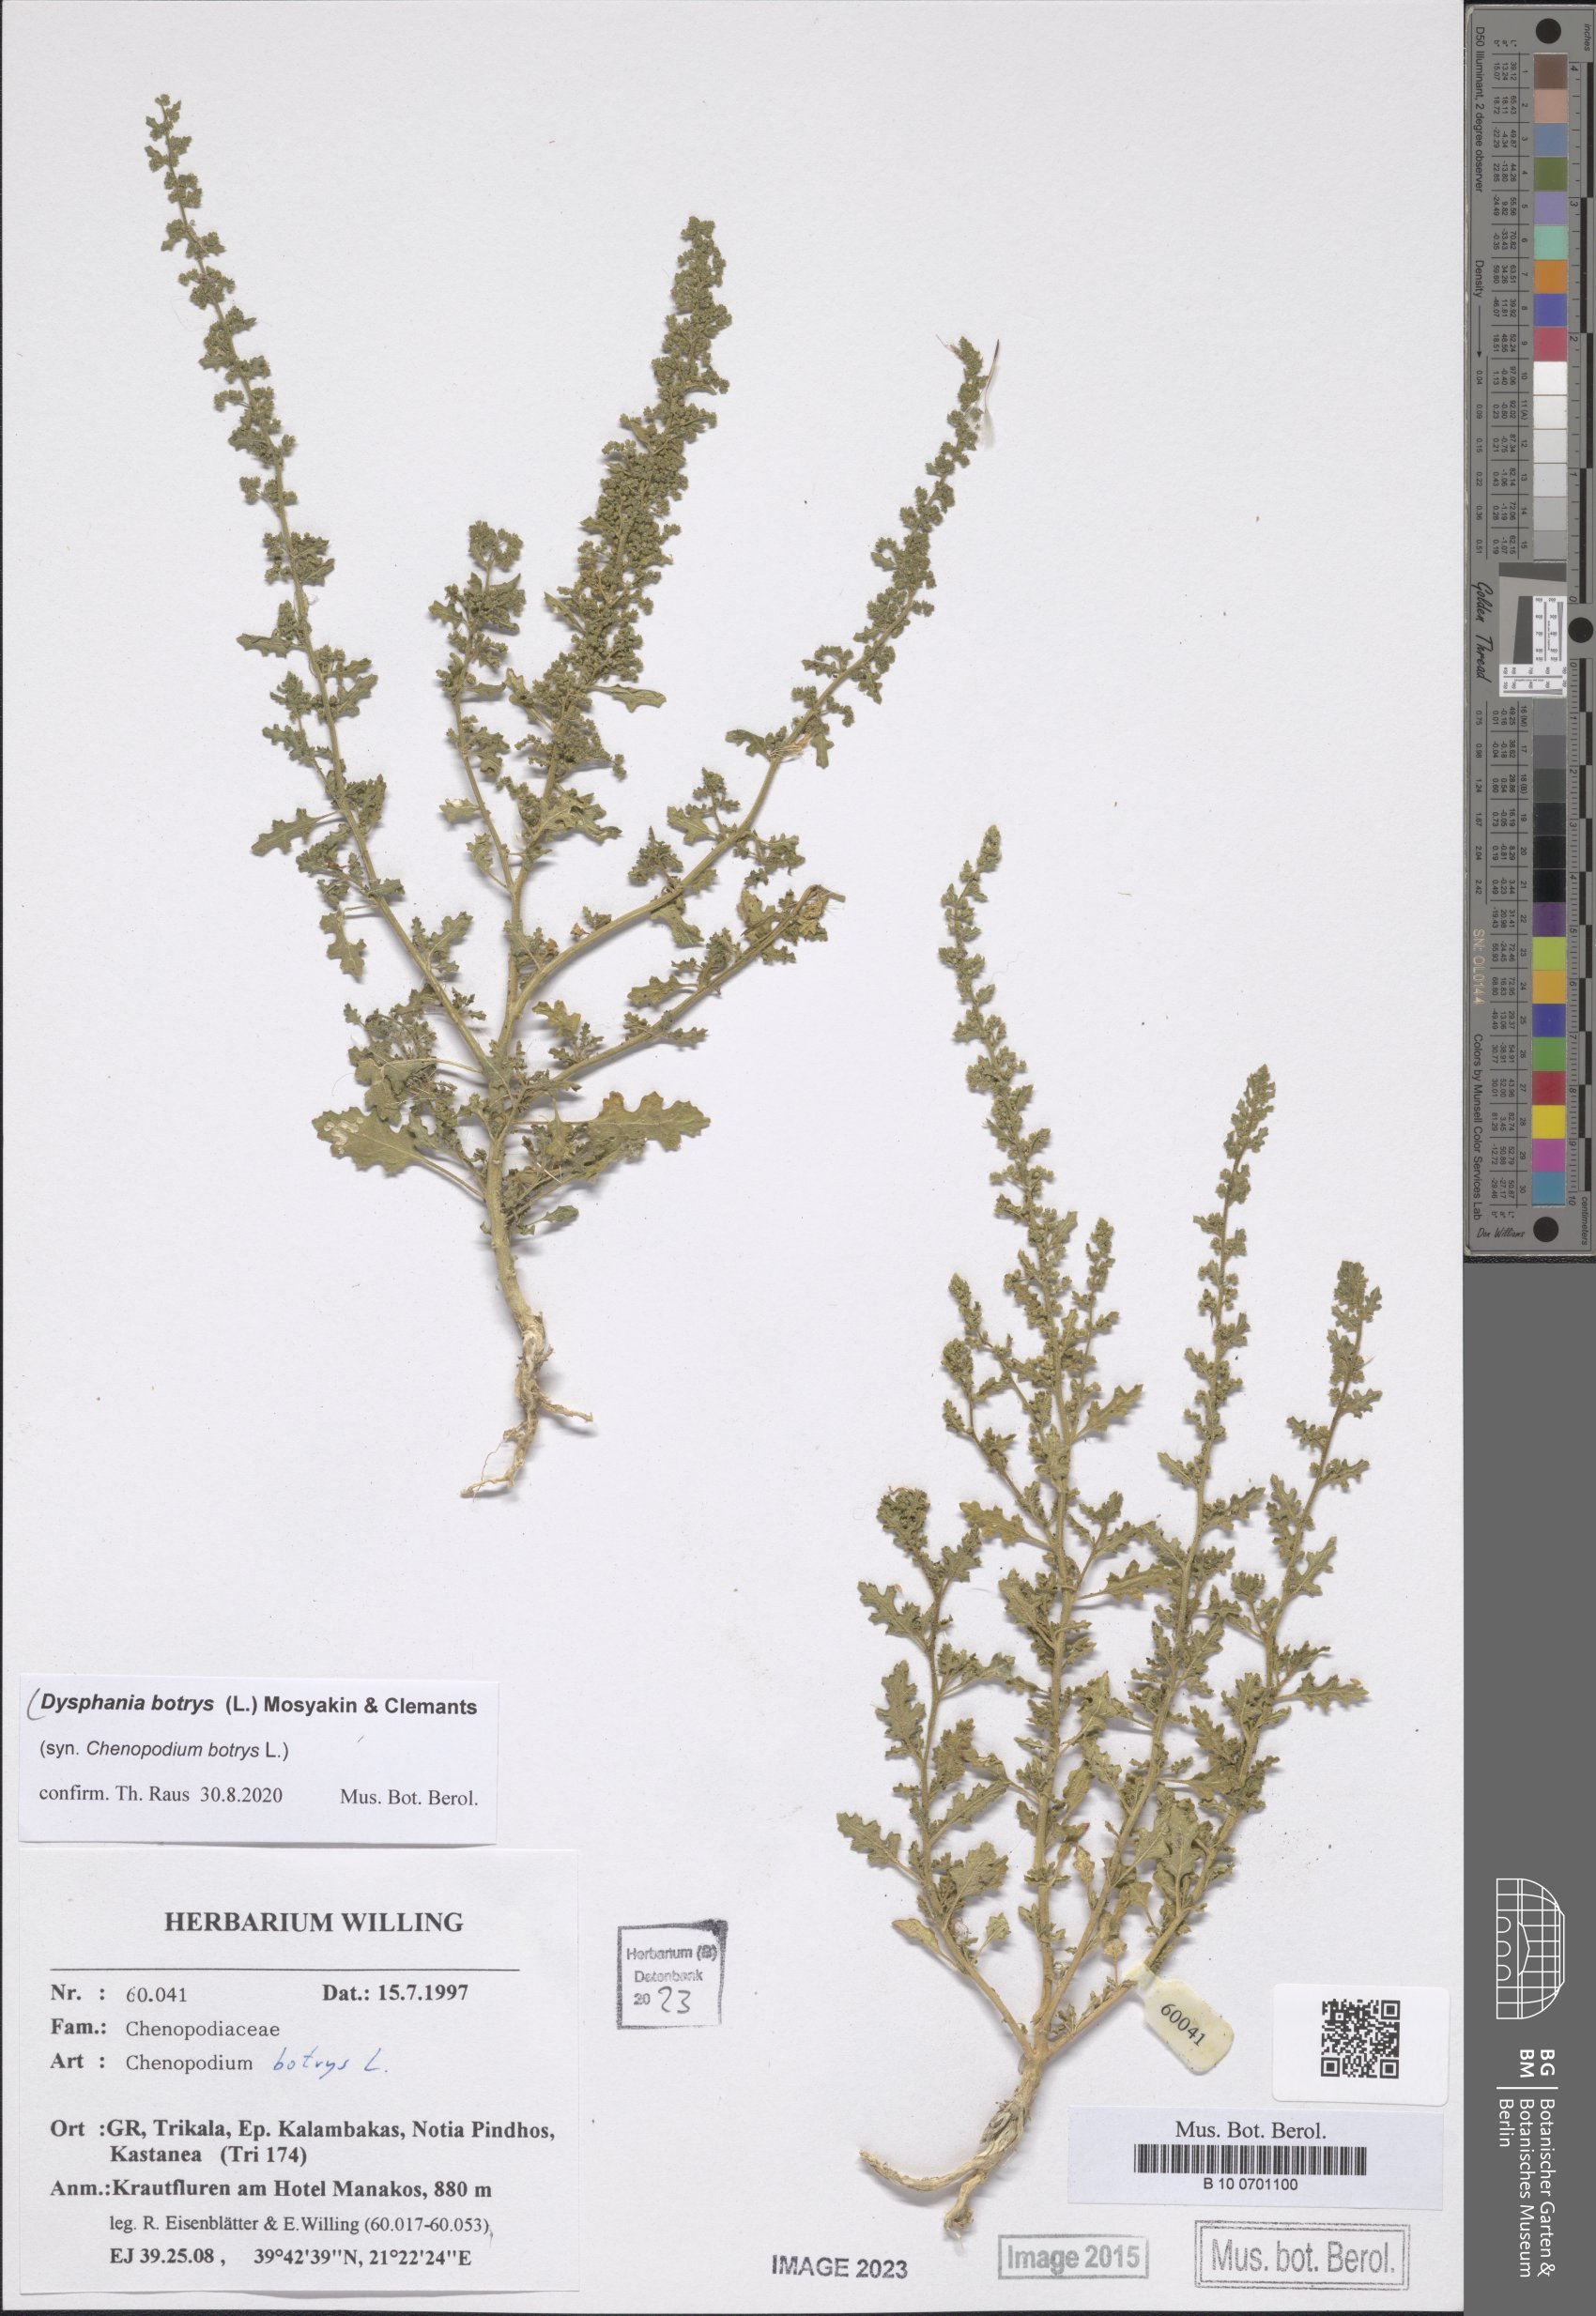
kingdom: Plantae
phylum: Tracheophyta
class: Magnoliopsida
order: Caryophyllales
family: Amaranthaceae
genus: Dysphania
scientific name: Dysphania botrys
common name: Feather-geranium
